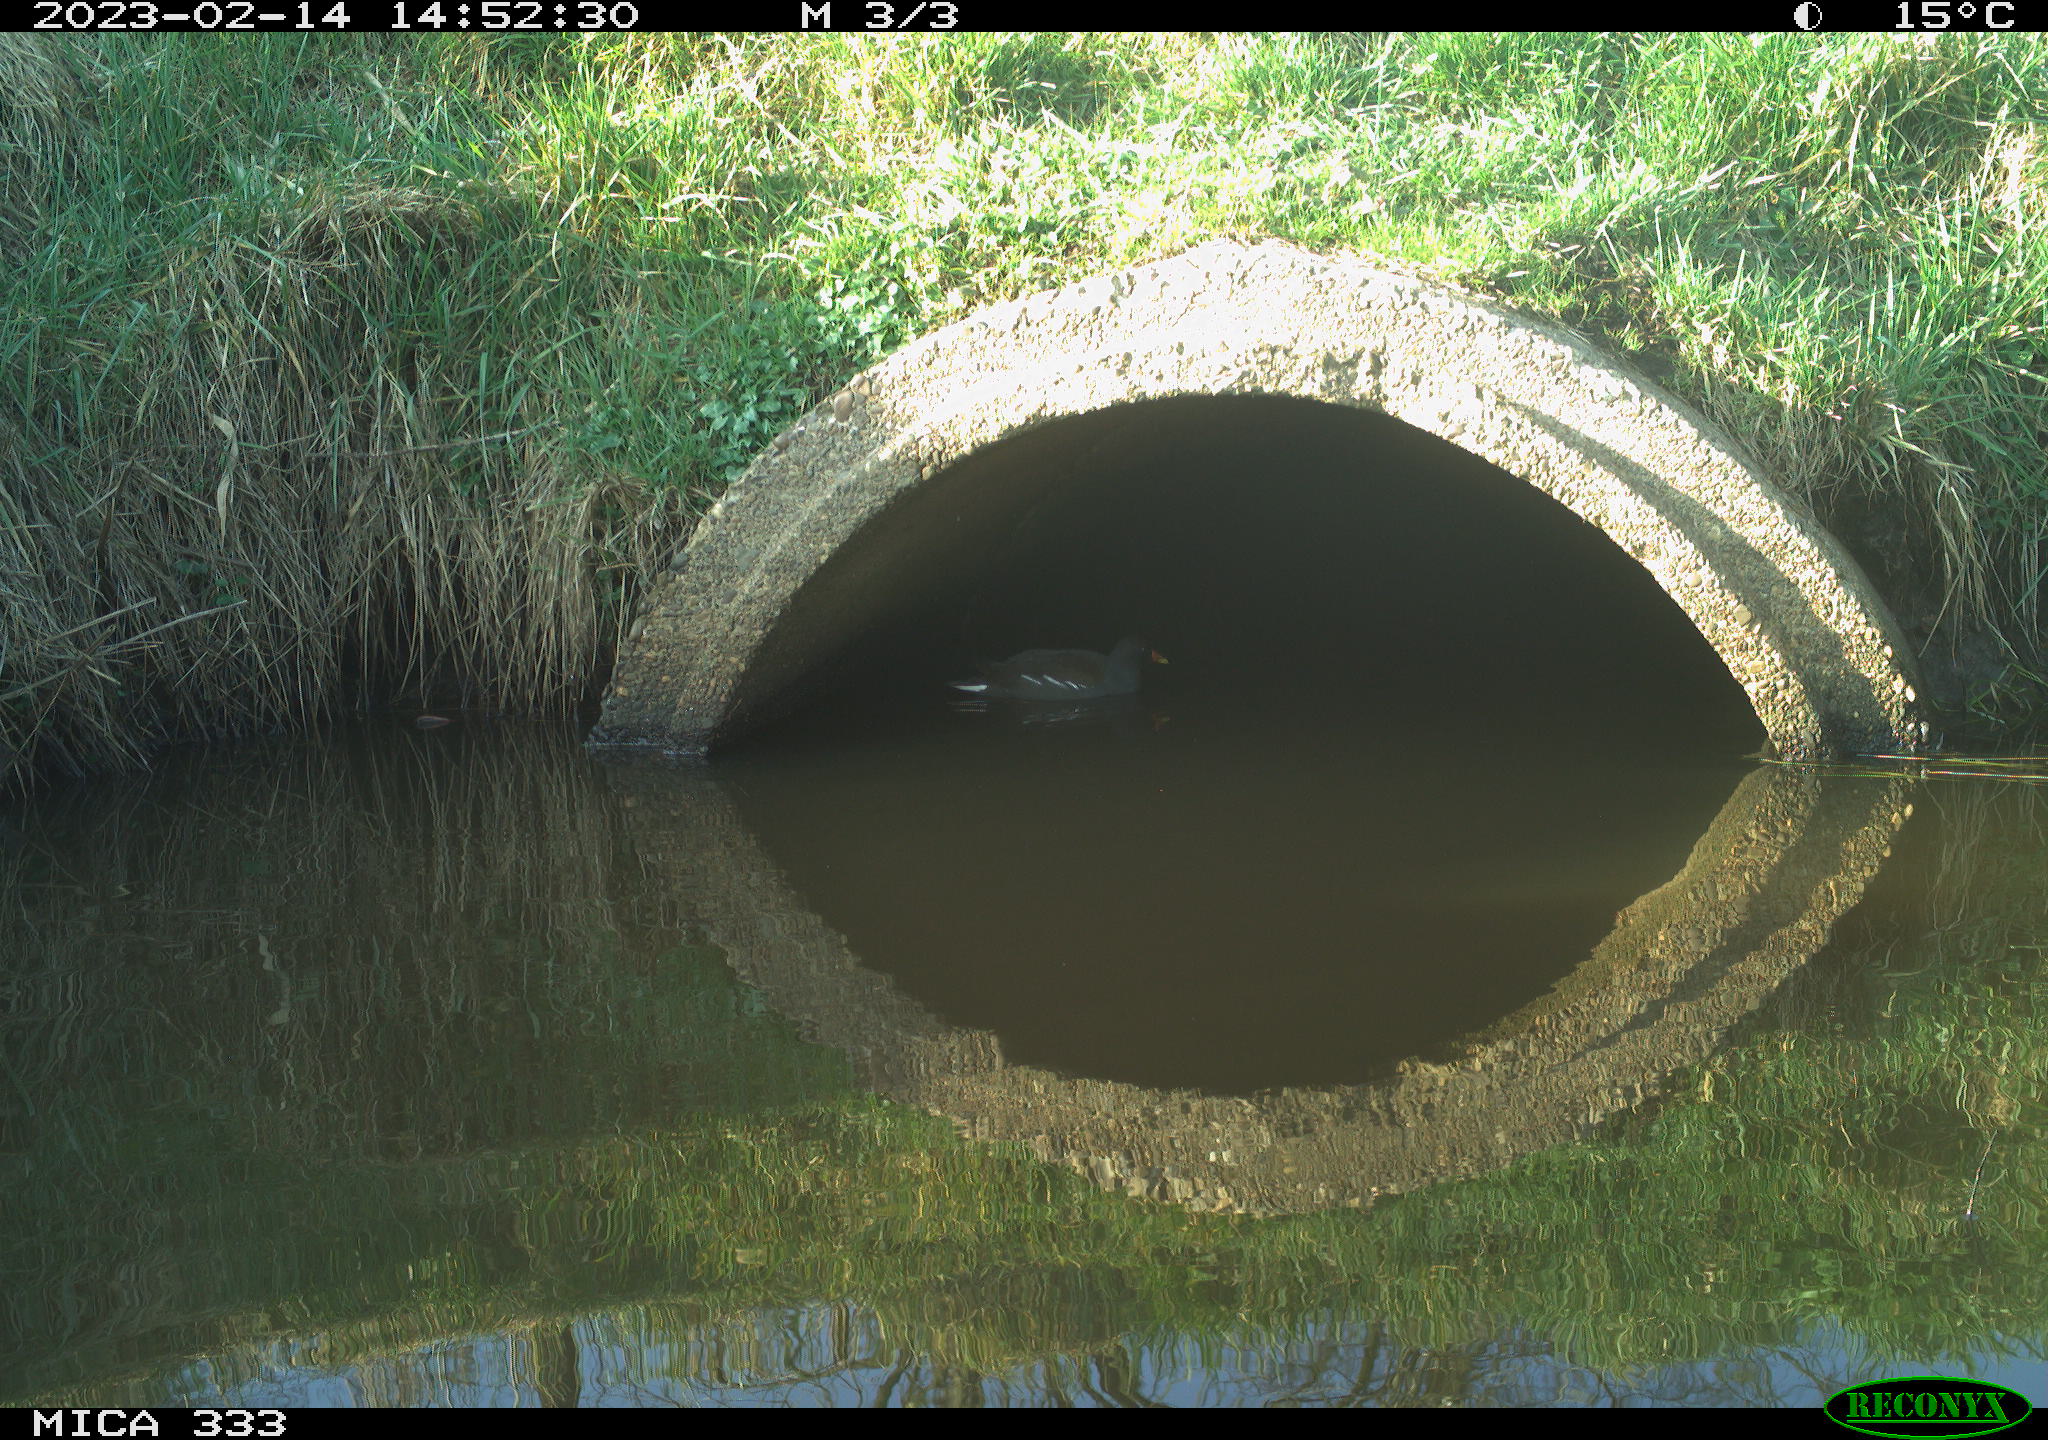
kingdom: Animalia
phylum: Chordata
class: Aves
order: Gruiformes
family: Rallidae
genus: Gallinula
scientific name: Gallinula chloropus
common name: Common moorhen
